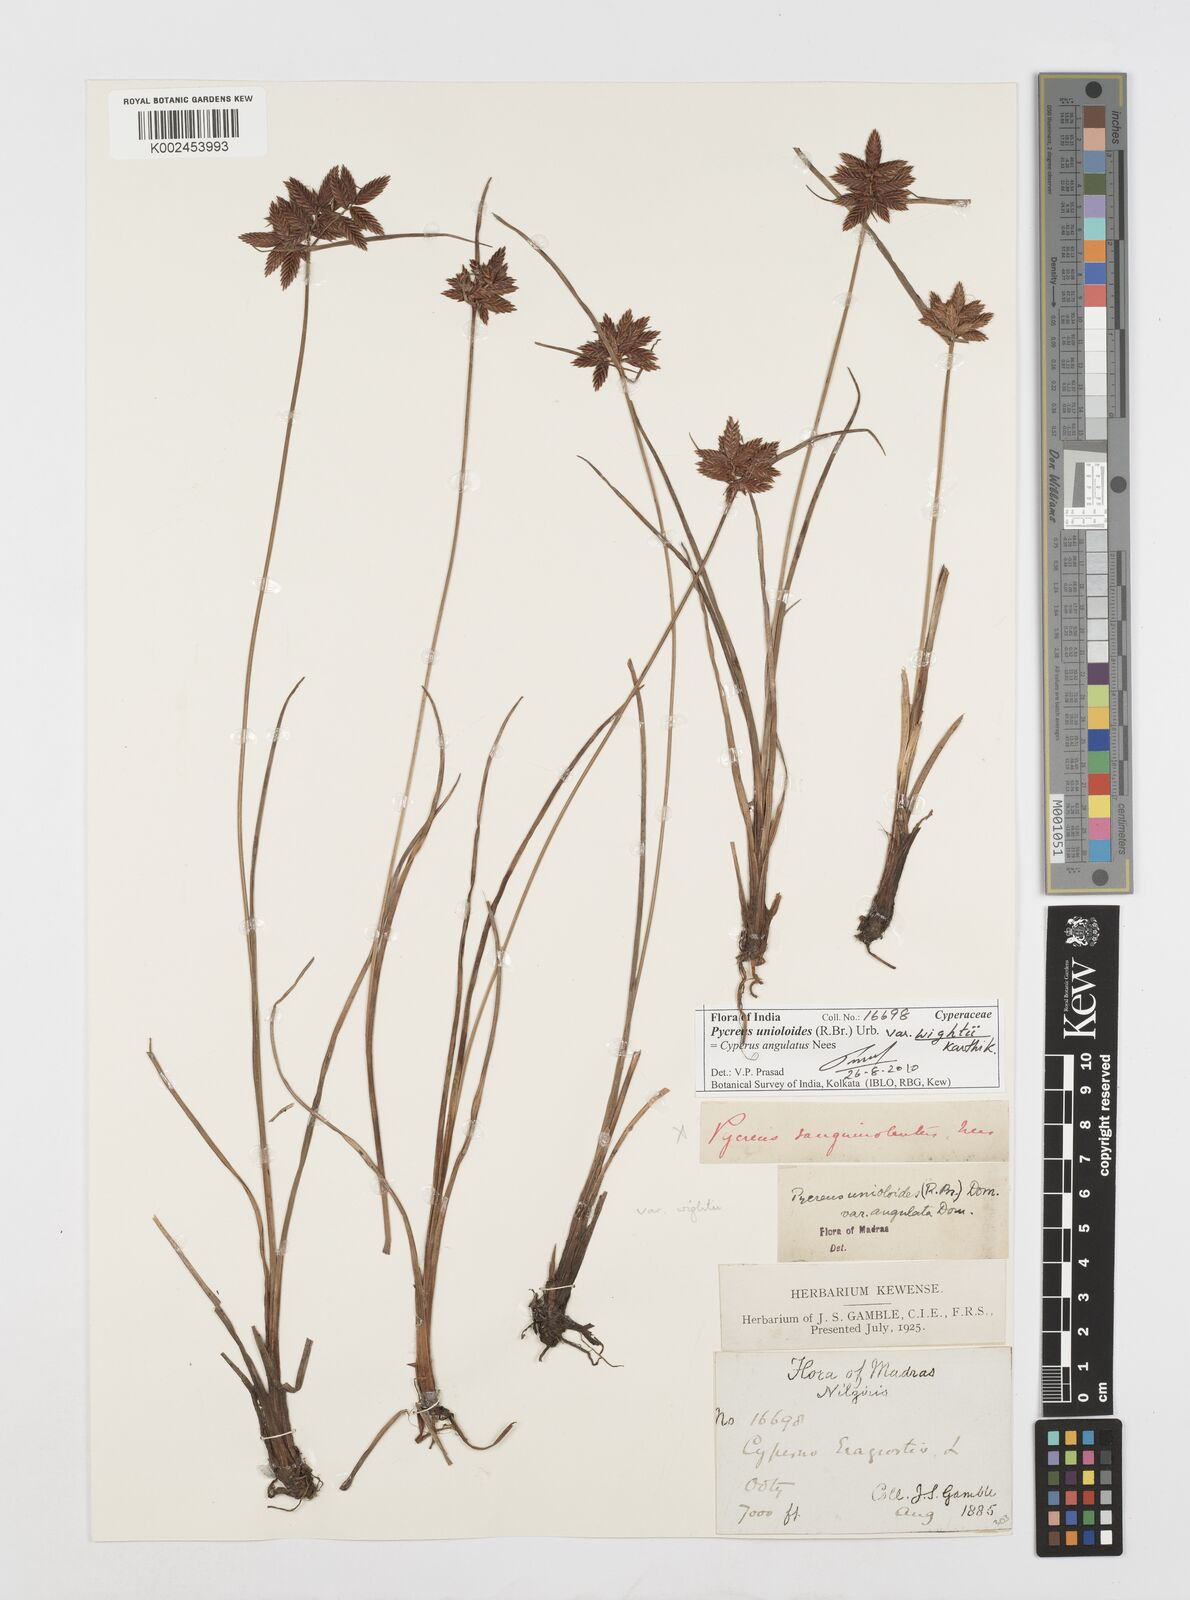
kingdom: Plantae
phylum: Tracheophyta
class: Liliopsida
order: Poales
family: Cyperaceae
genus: Cyperus
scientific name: Cyperus unioloides
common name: Uniola flatsedge
